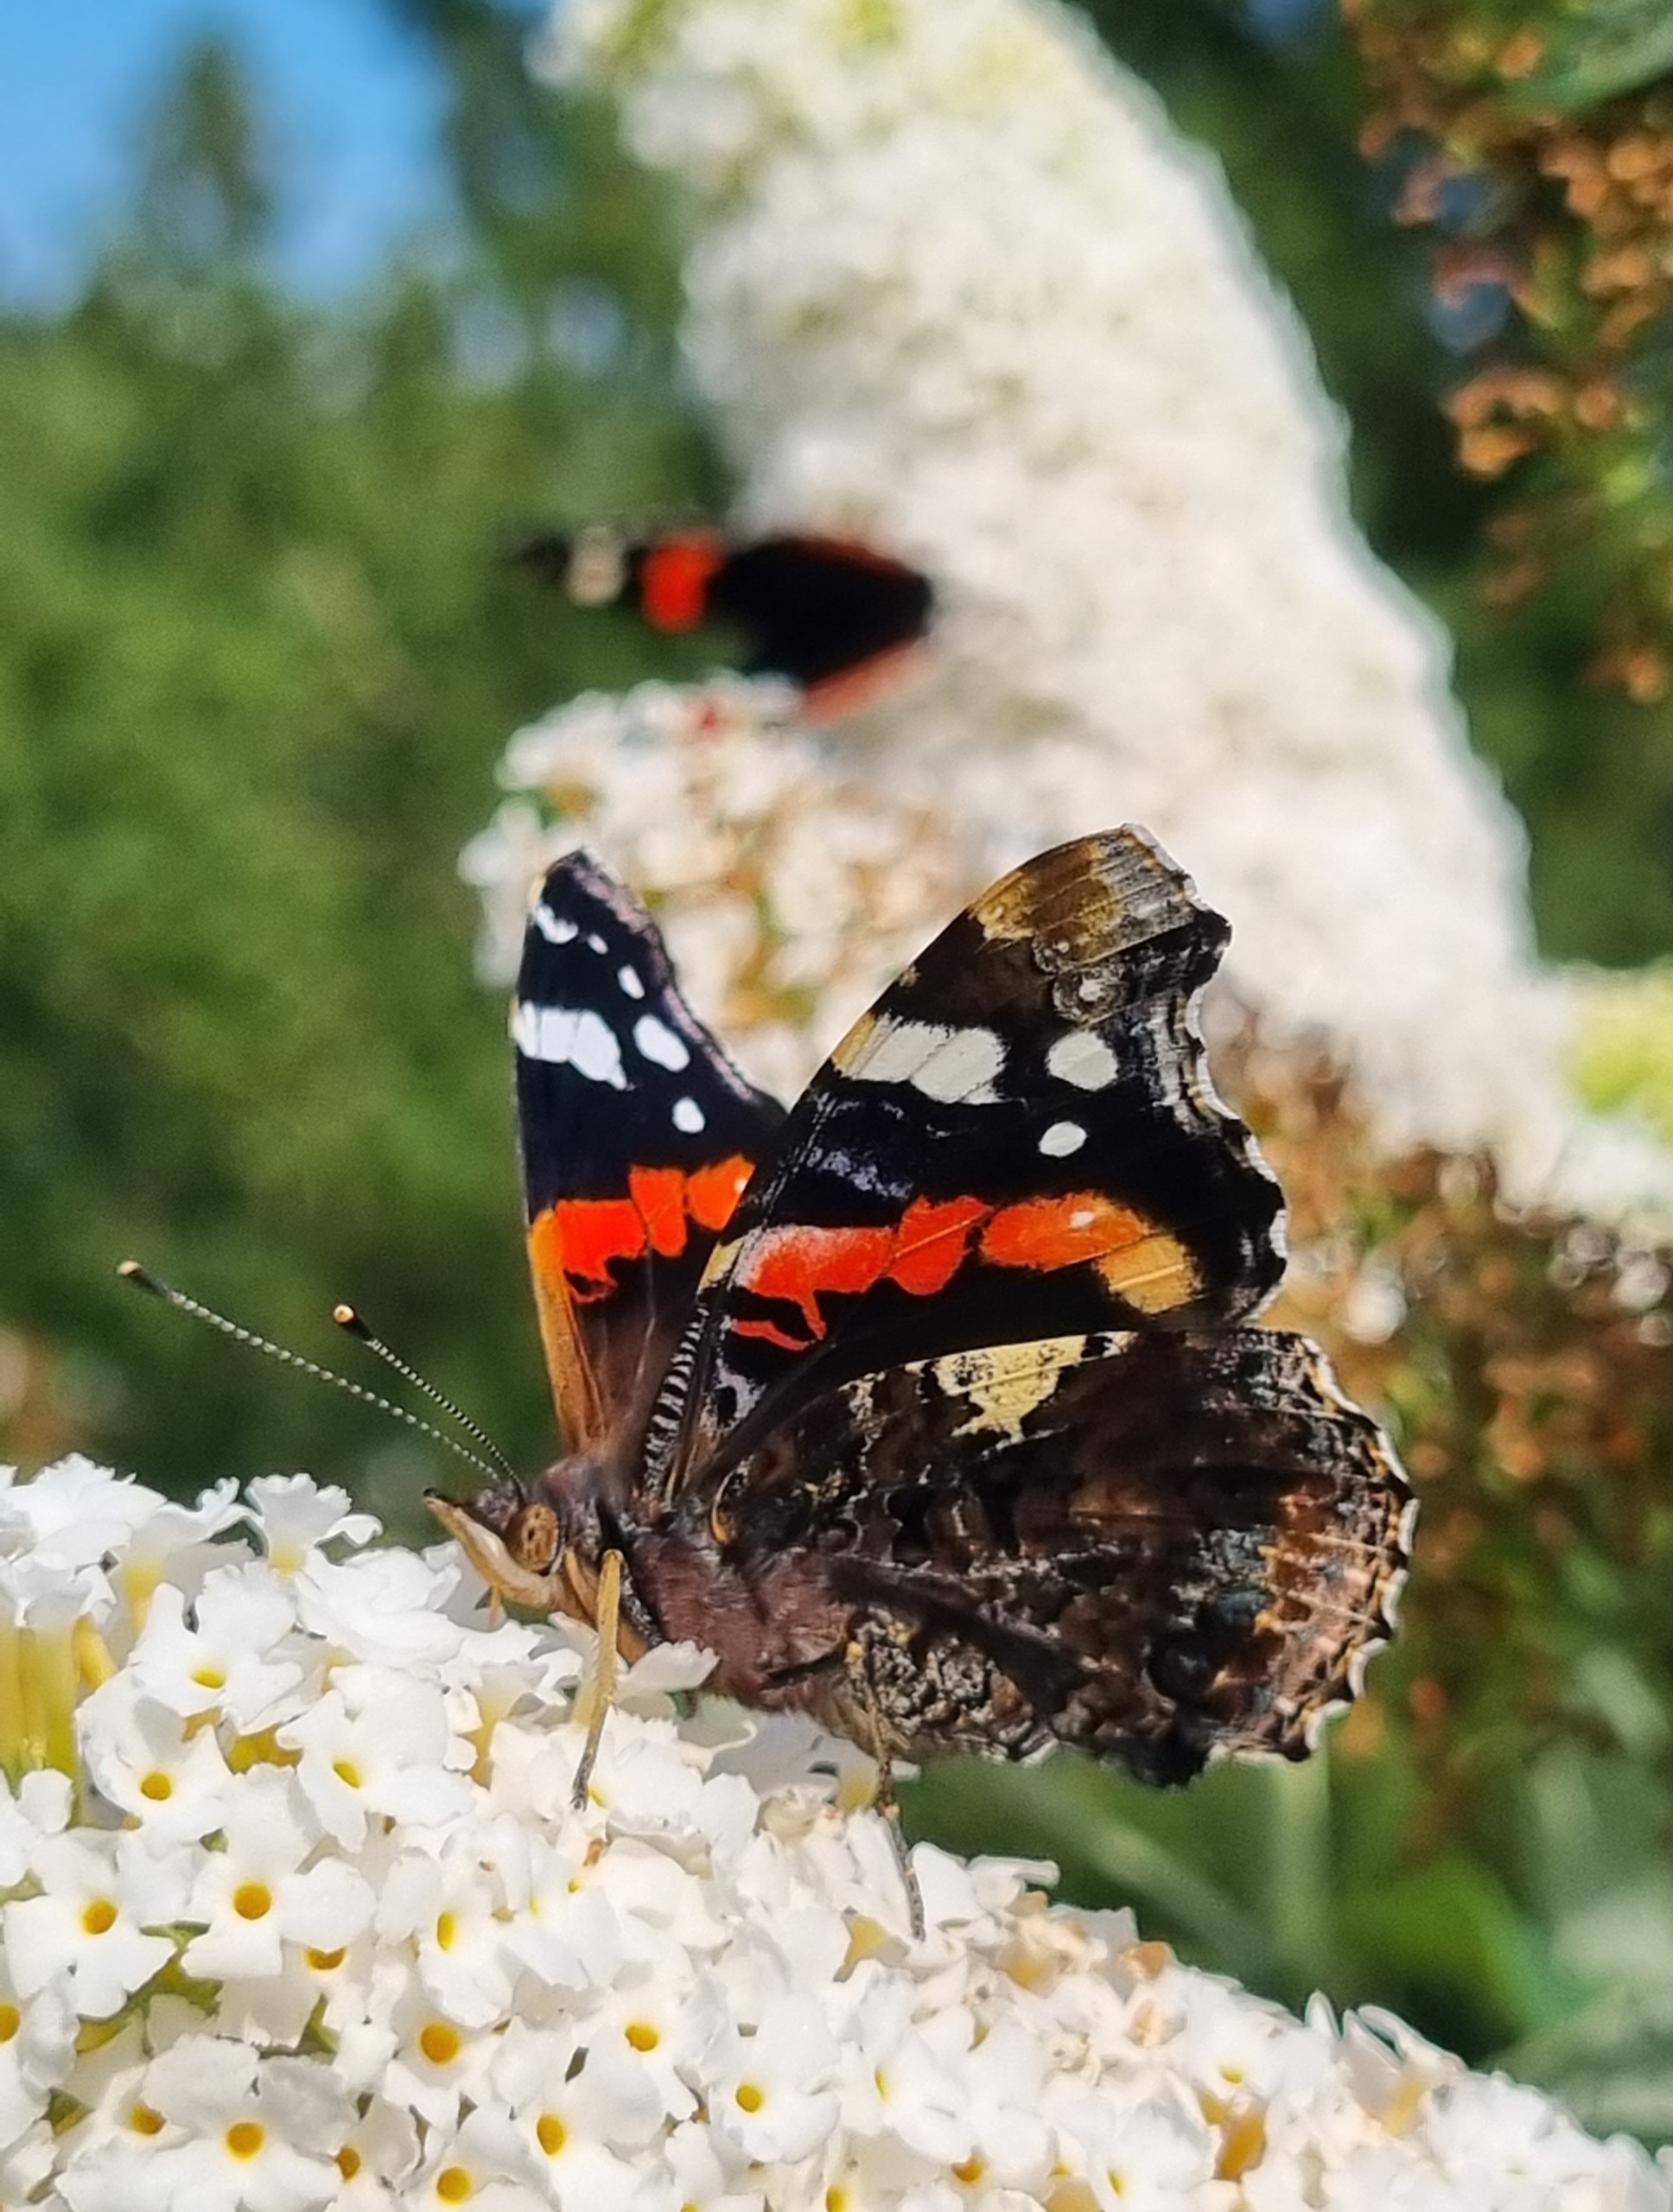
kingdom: Animalia
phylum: Arthropoda
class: Insecta
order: Lepidoptera
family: Nymphalidae
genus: Vanessa
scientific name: Vanessa atalanta
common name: Admiral
